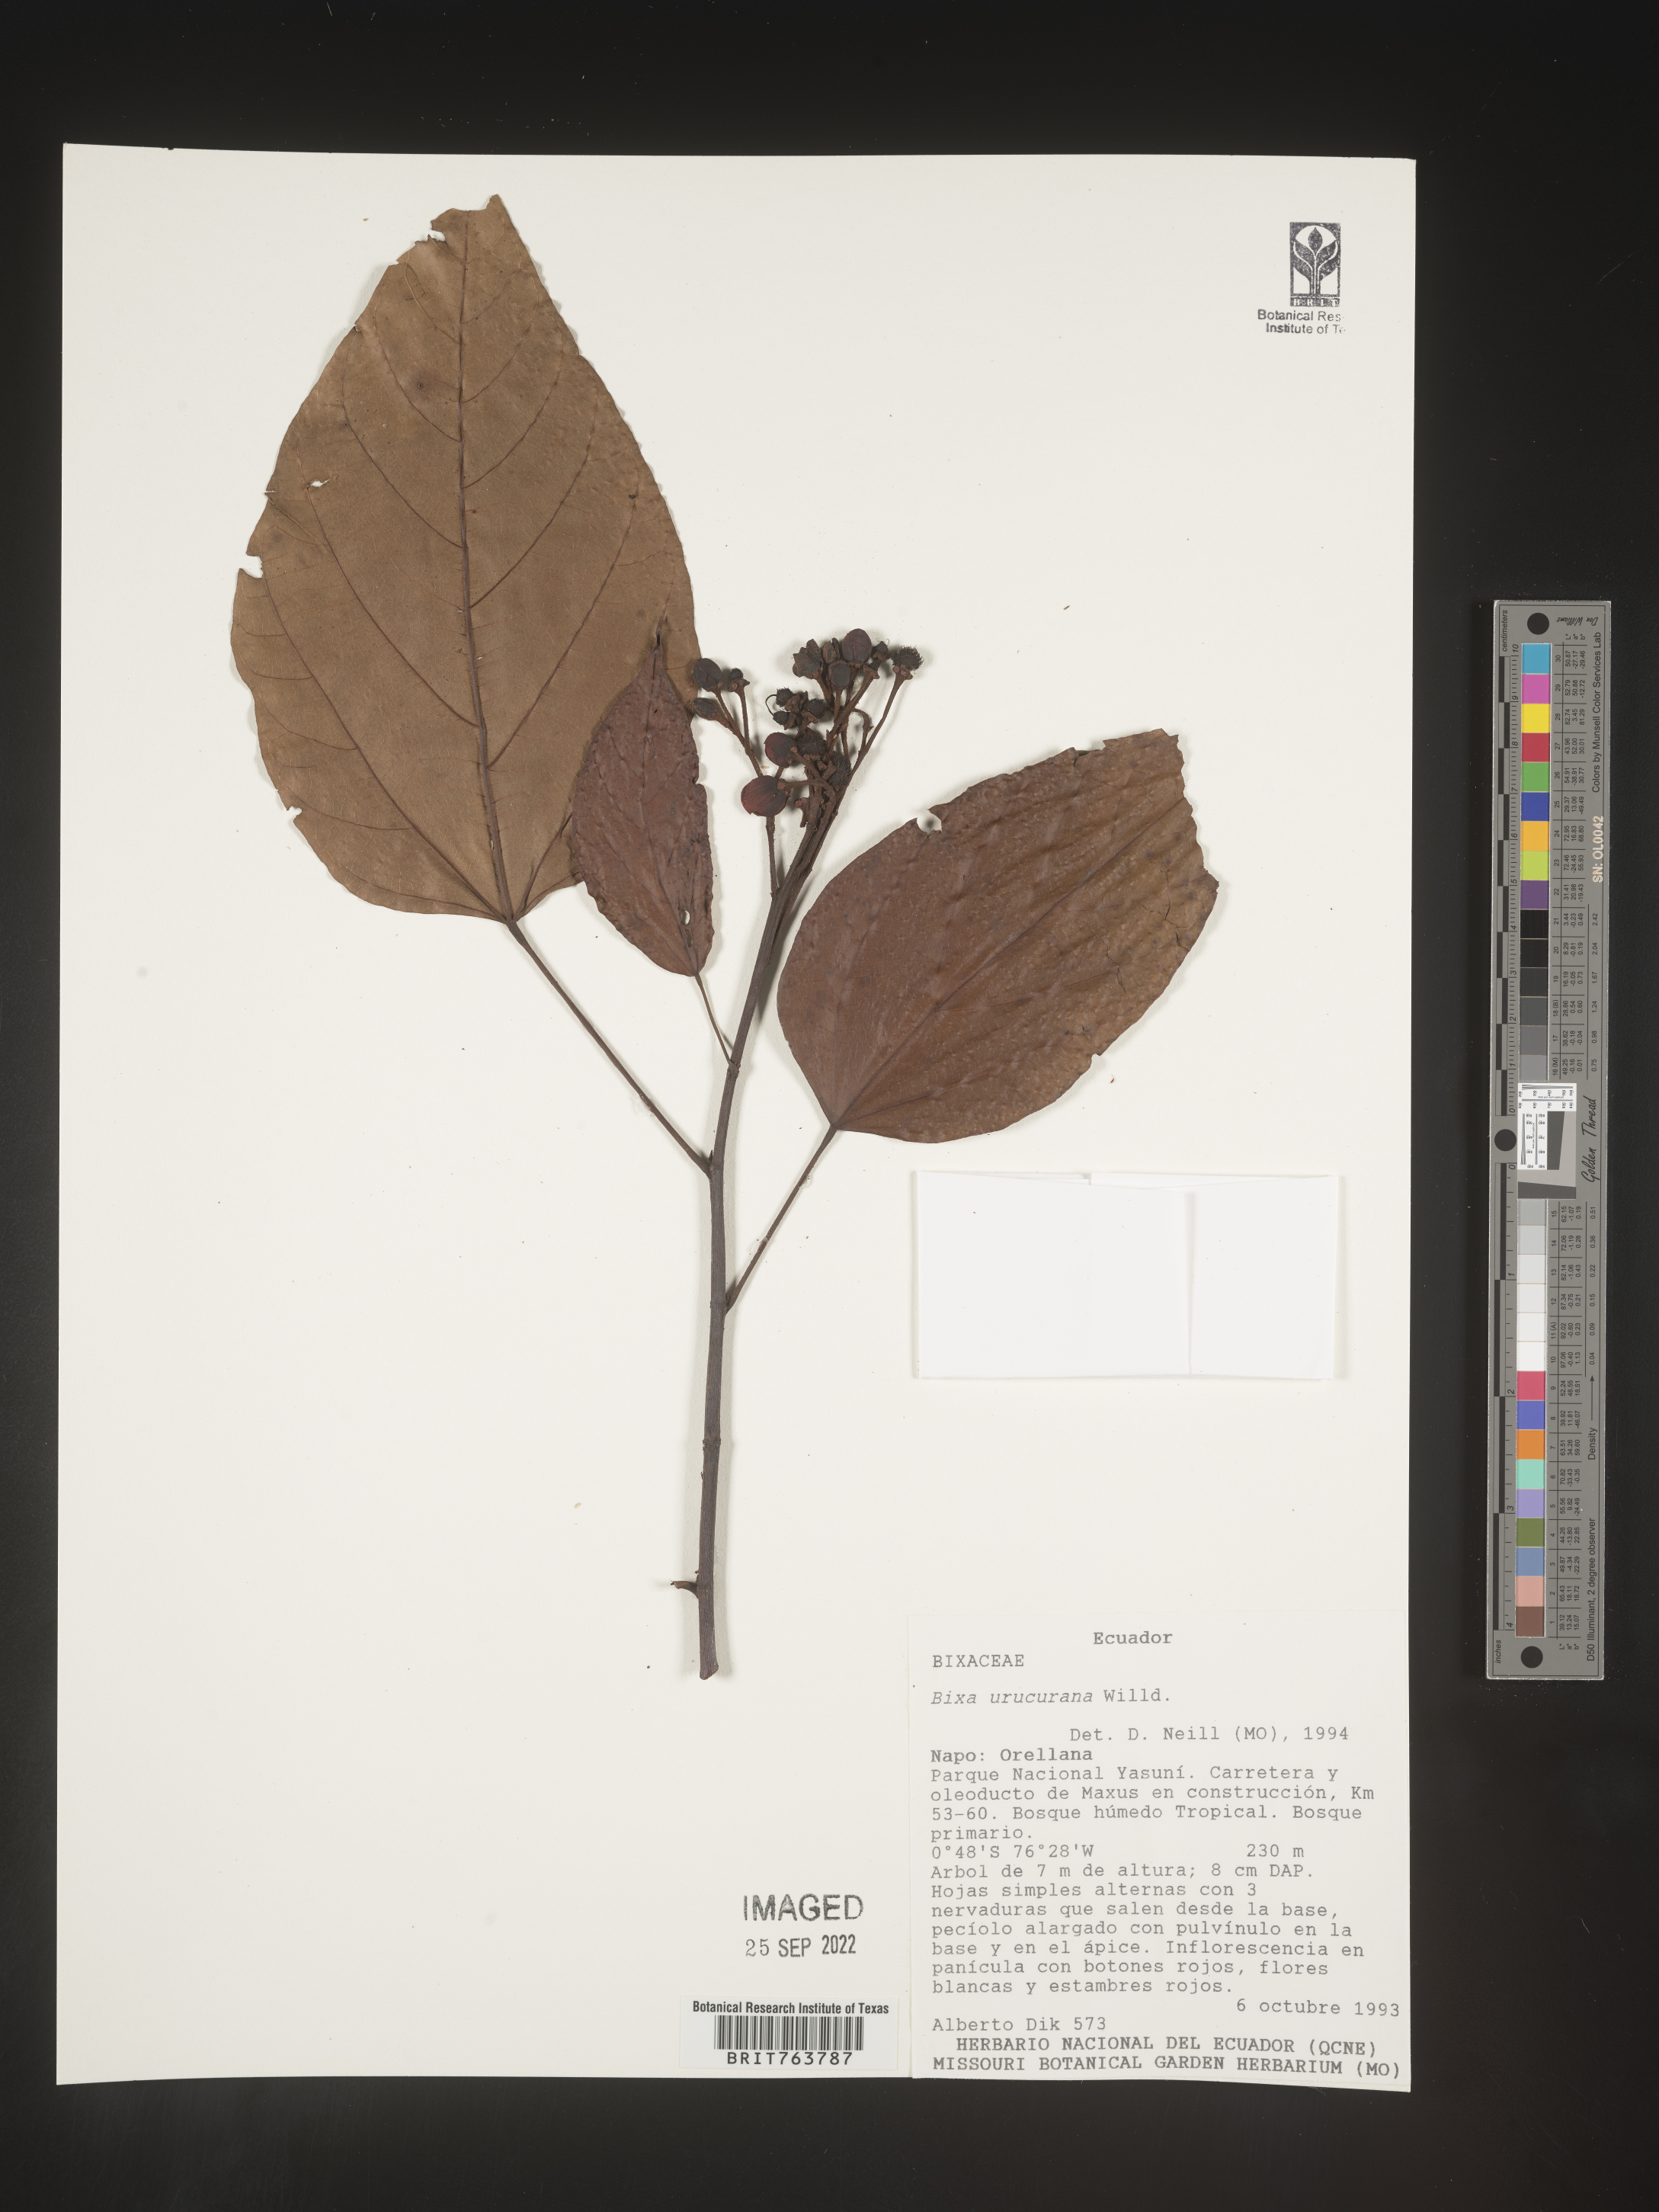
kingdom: Plantae
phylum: Tracheophyta
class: Magnoliopsida
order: Malvales
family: Bixaceae
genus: Bixa
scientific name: Bixa
